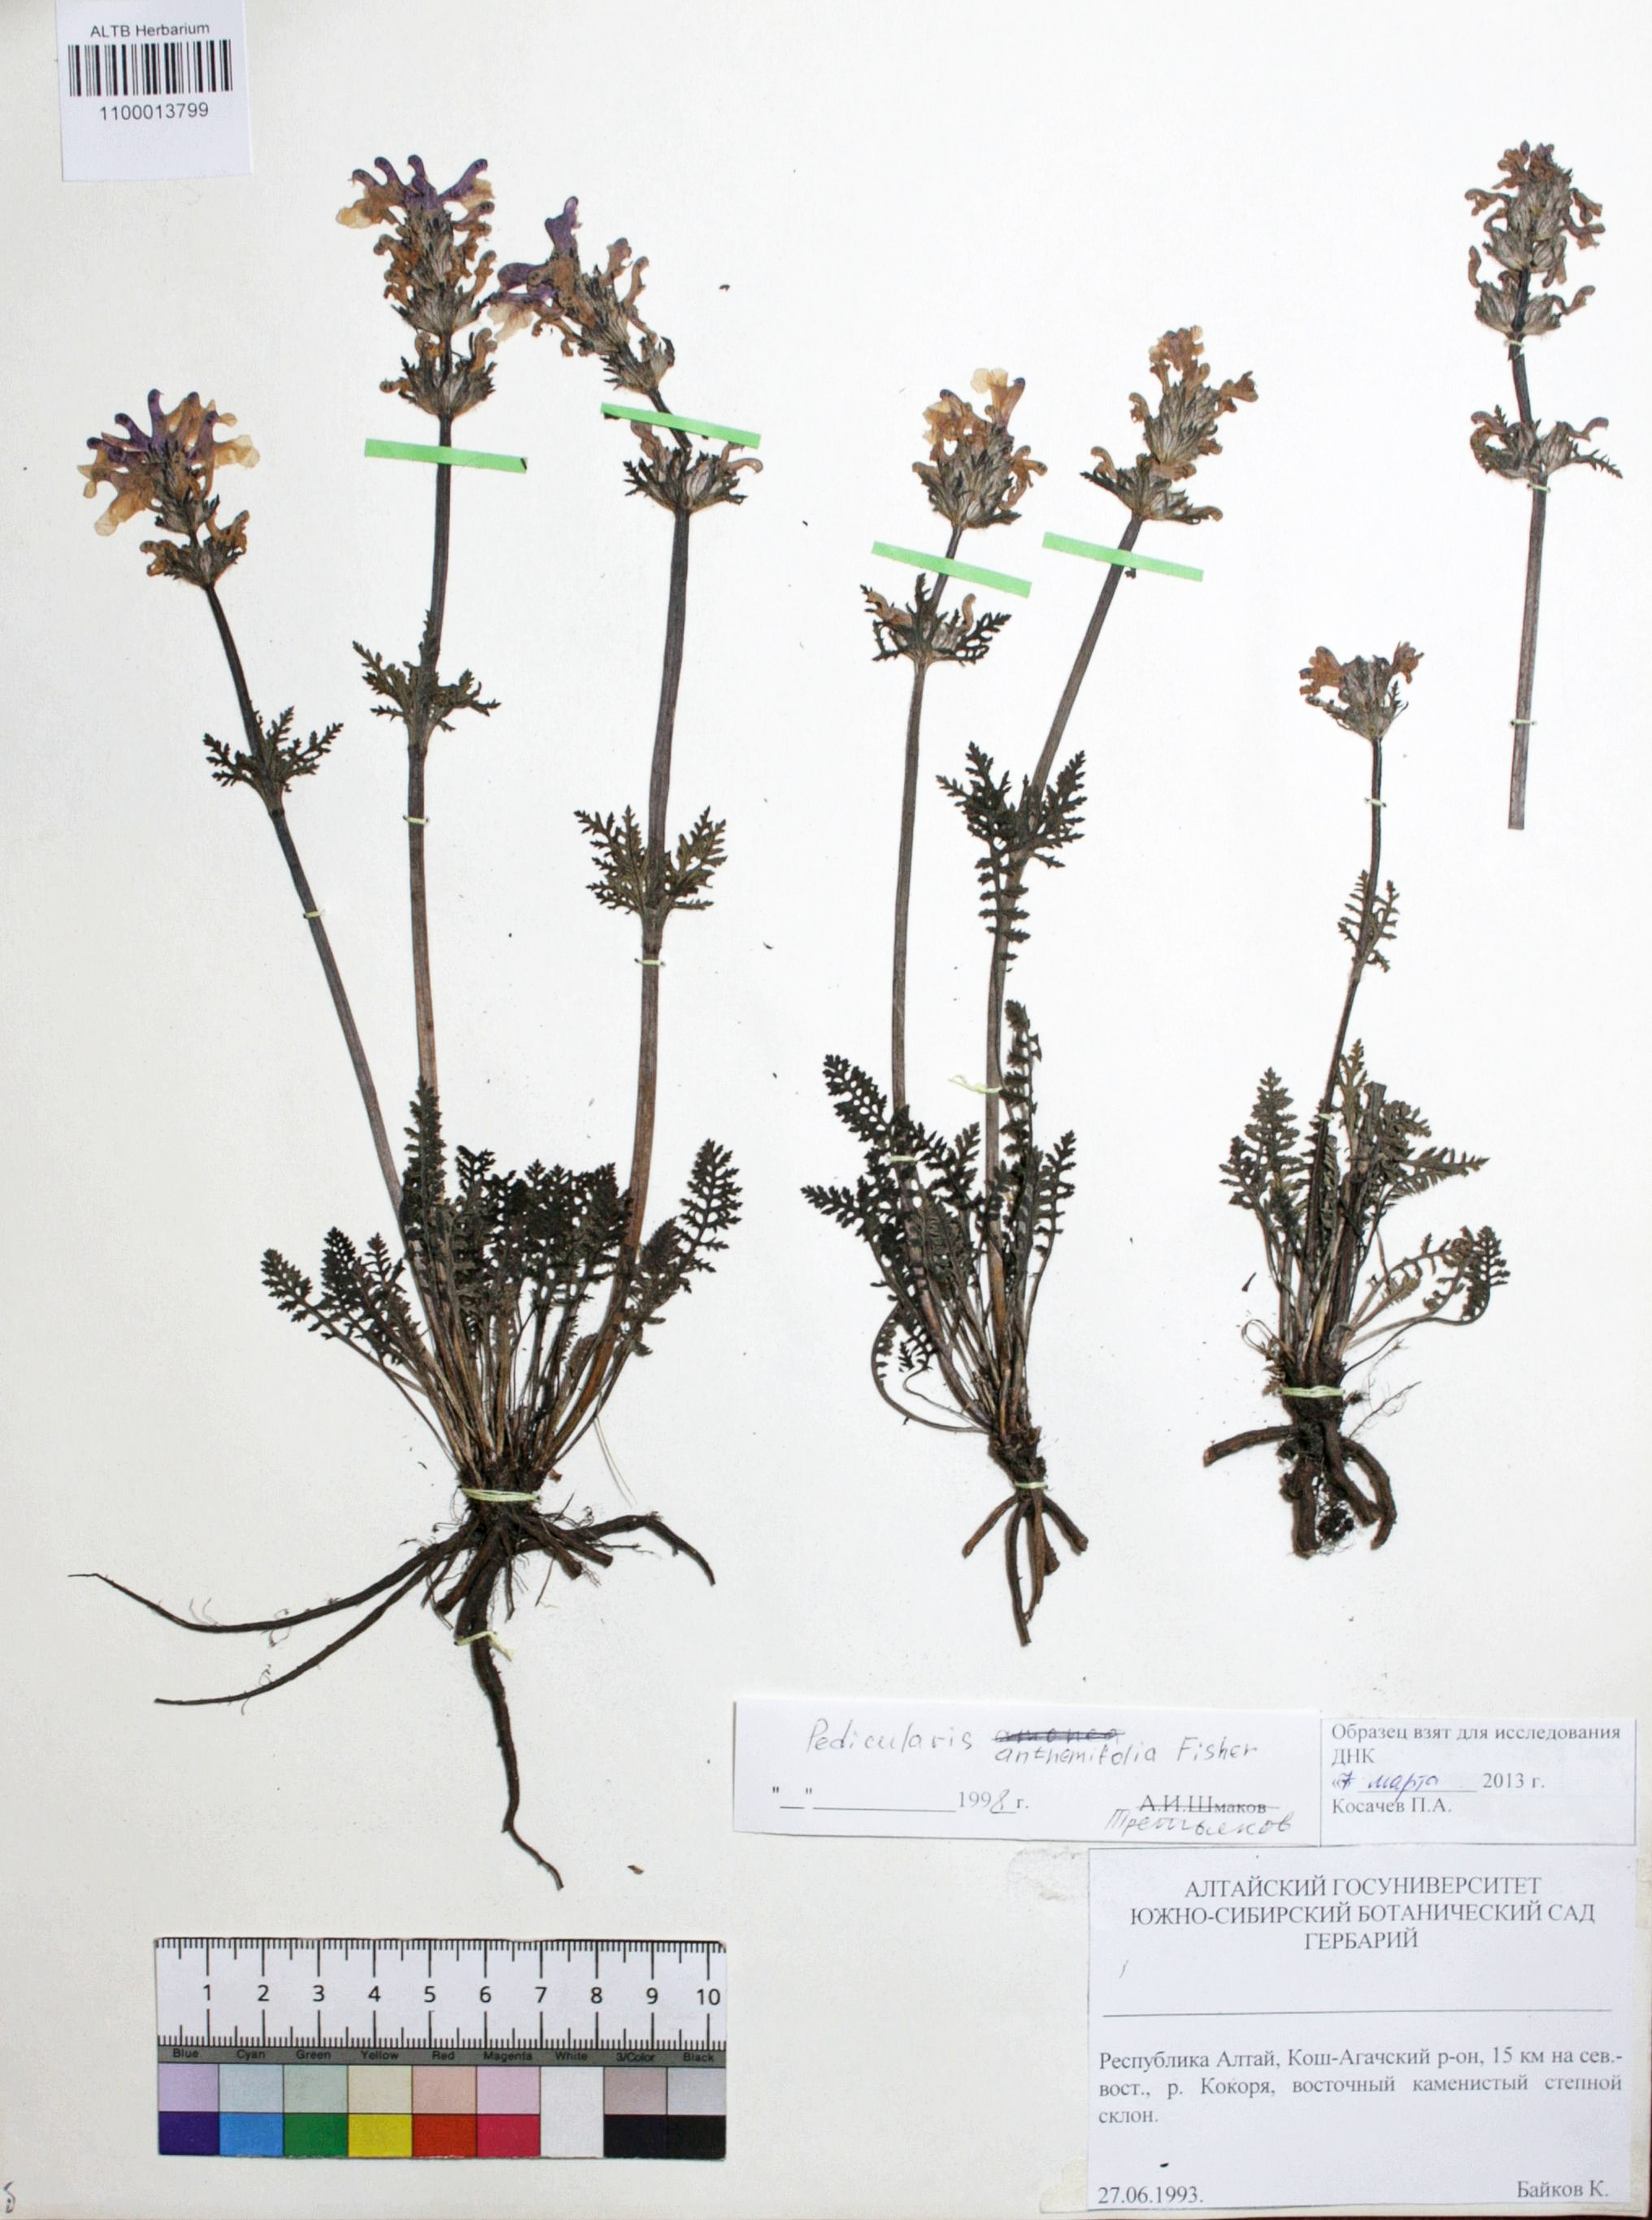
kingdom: Plantae
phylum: Tracheophyta
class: Magnoliopsida
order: Lamiales
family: Orobanchaceae
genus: Pedicularis
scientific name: Pedicularis anthemifolia
